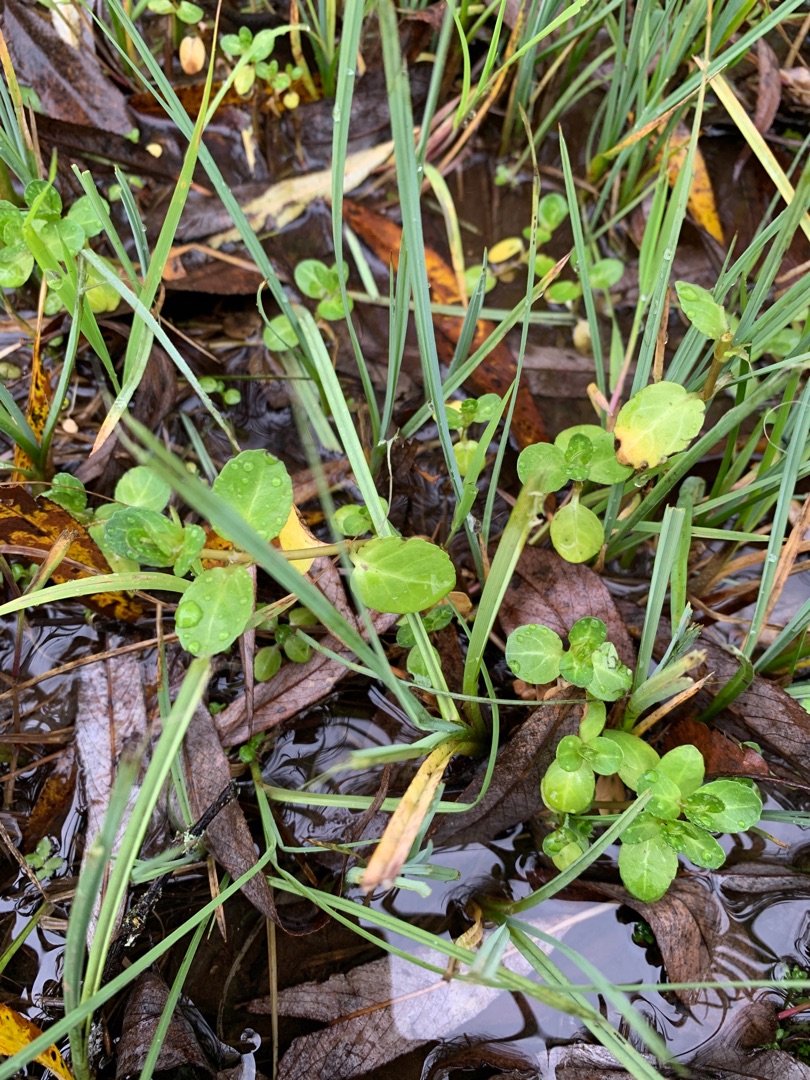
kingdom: Plantae
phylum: Tracheophyta
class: Magnoliopsida
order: Lamiales
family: Plantaginaceae
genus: Veronica
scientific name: Veronica beccabunga
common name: Tykbladet ærenpris
